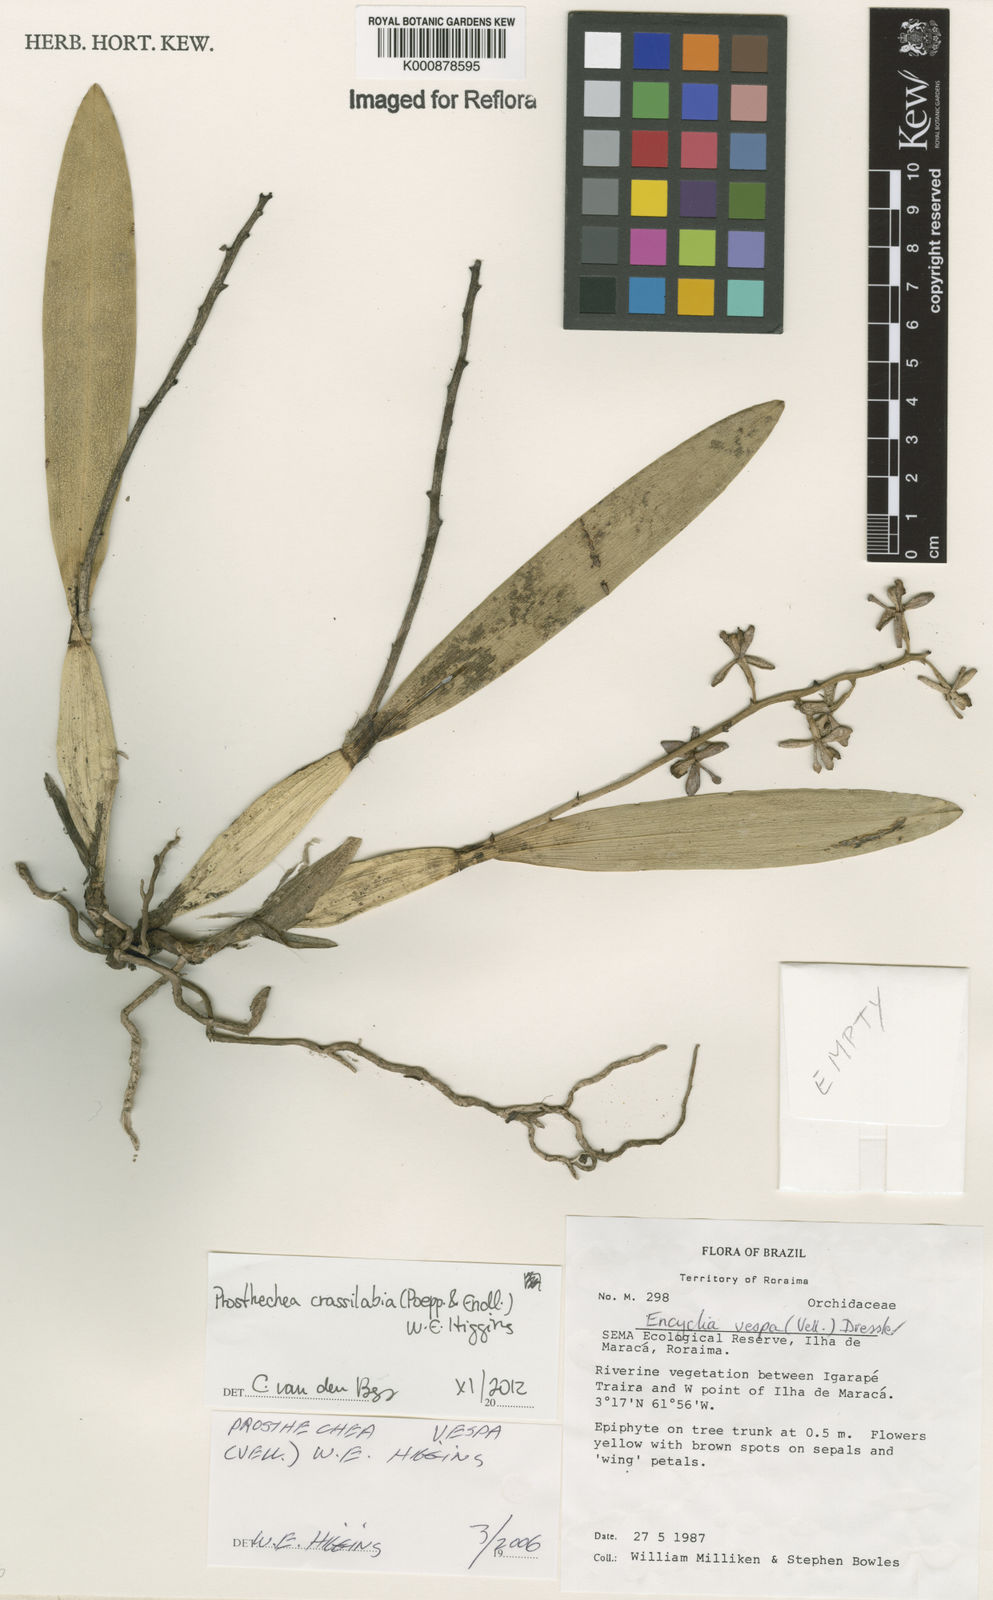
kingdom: Plantae
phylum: Tracheophyta
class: Liliopsida
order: Asparagales
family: Orchidaceae
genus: Prosthechea
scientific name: Prosthechea
